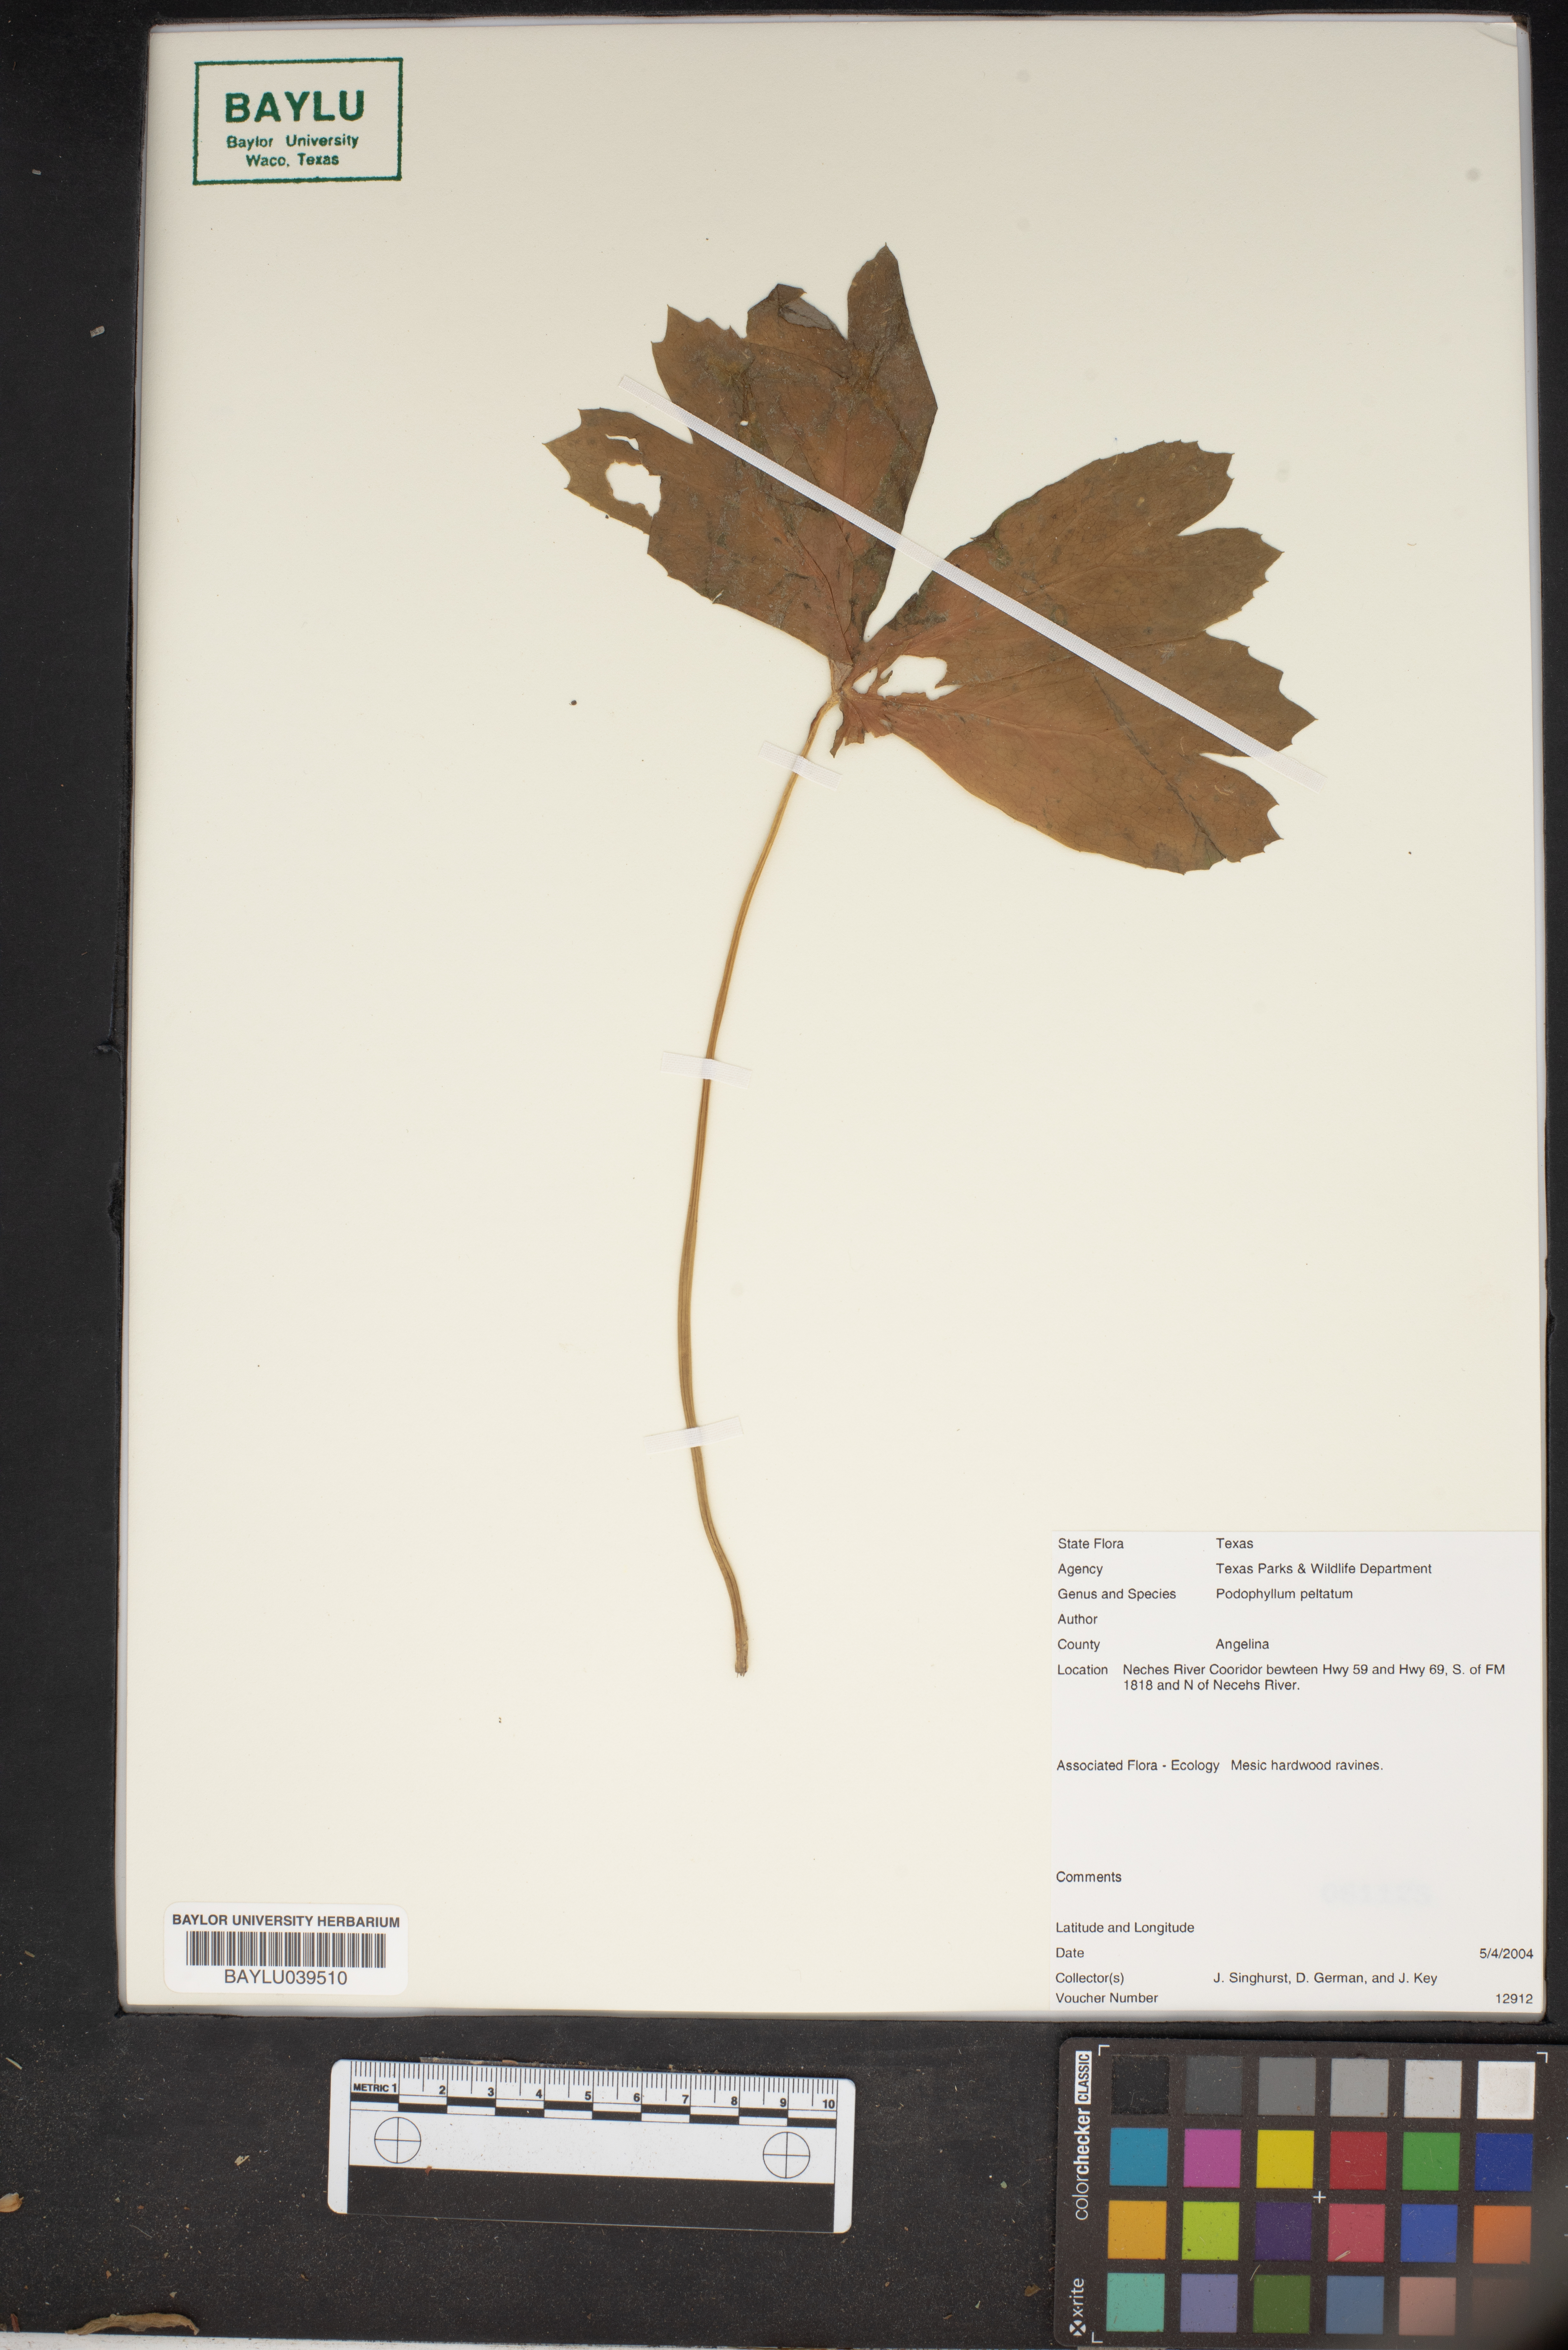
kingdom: Plantae
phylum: Tracheophyta
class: Magnoliopsida
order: Ranunculales
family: Berberidaceae
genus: Podophyllum
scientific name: Podophyllum peltatum
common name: Wild mandrake
